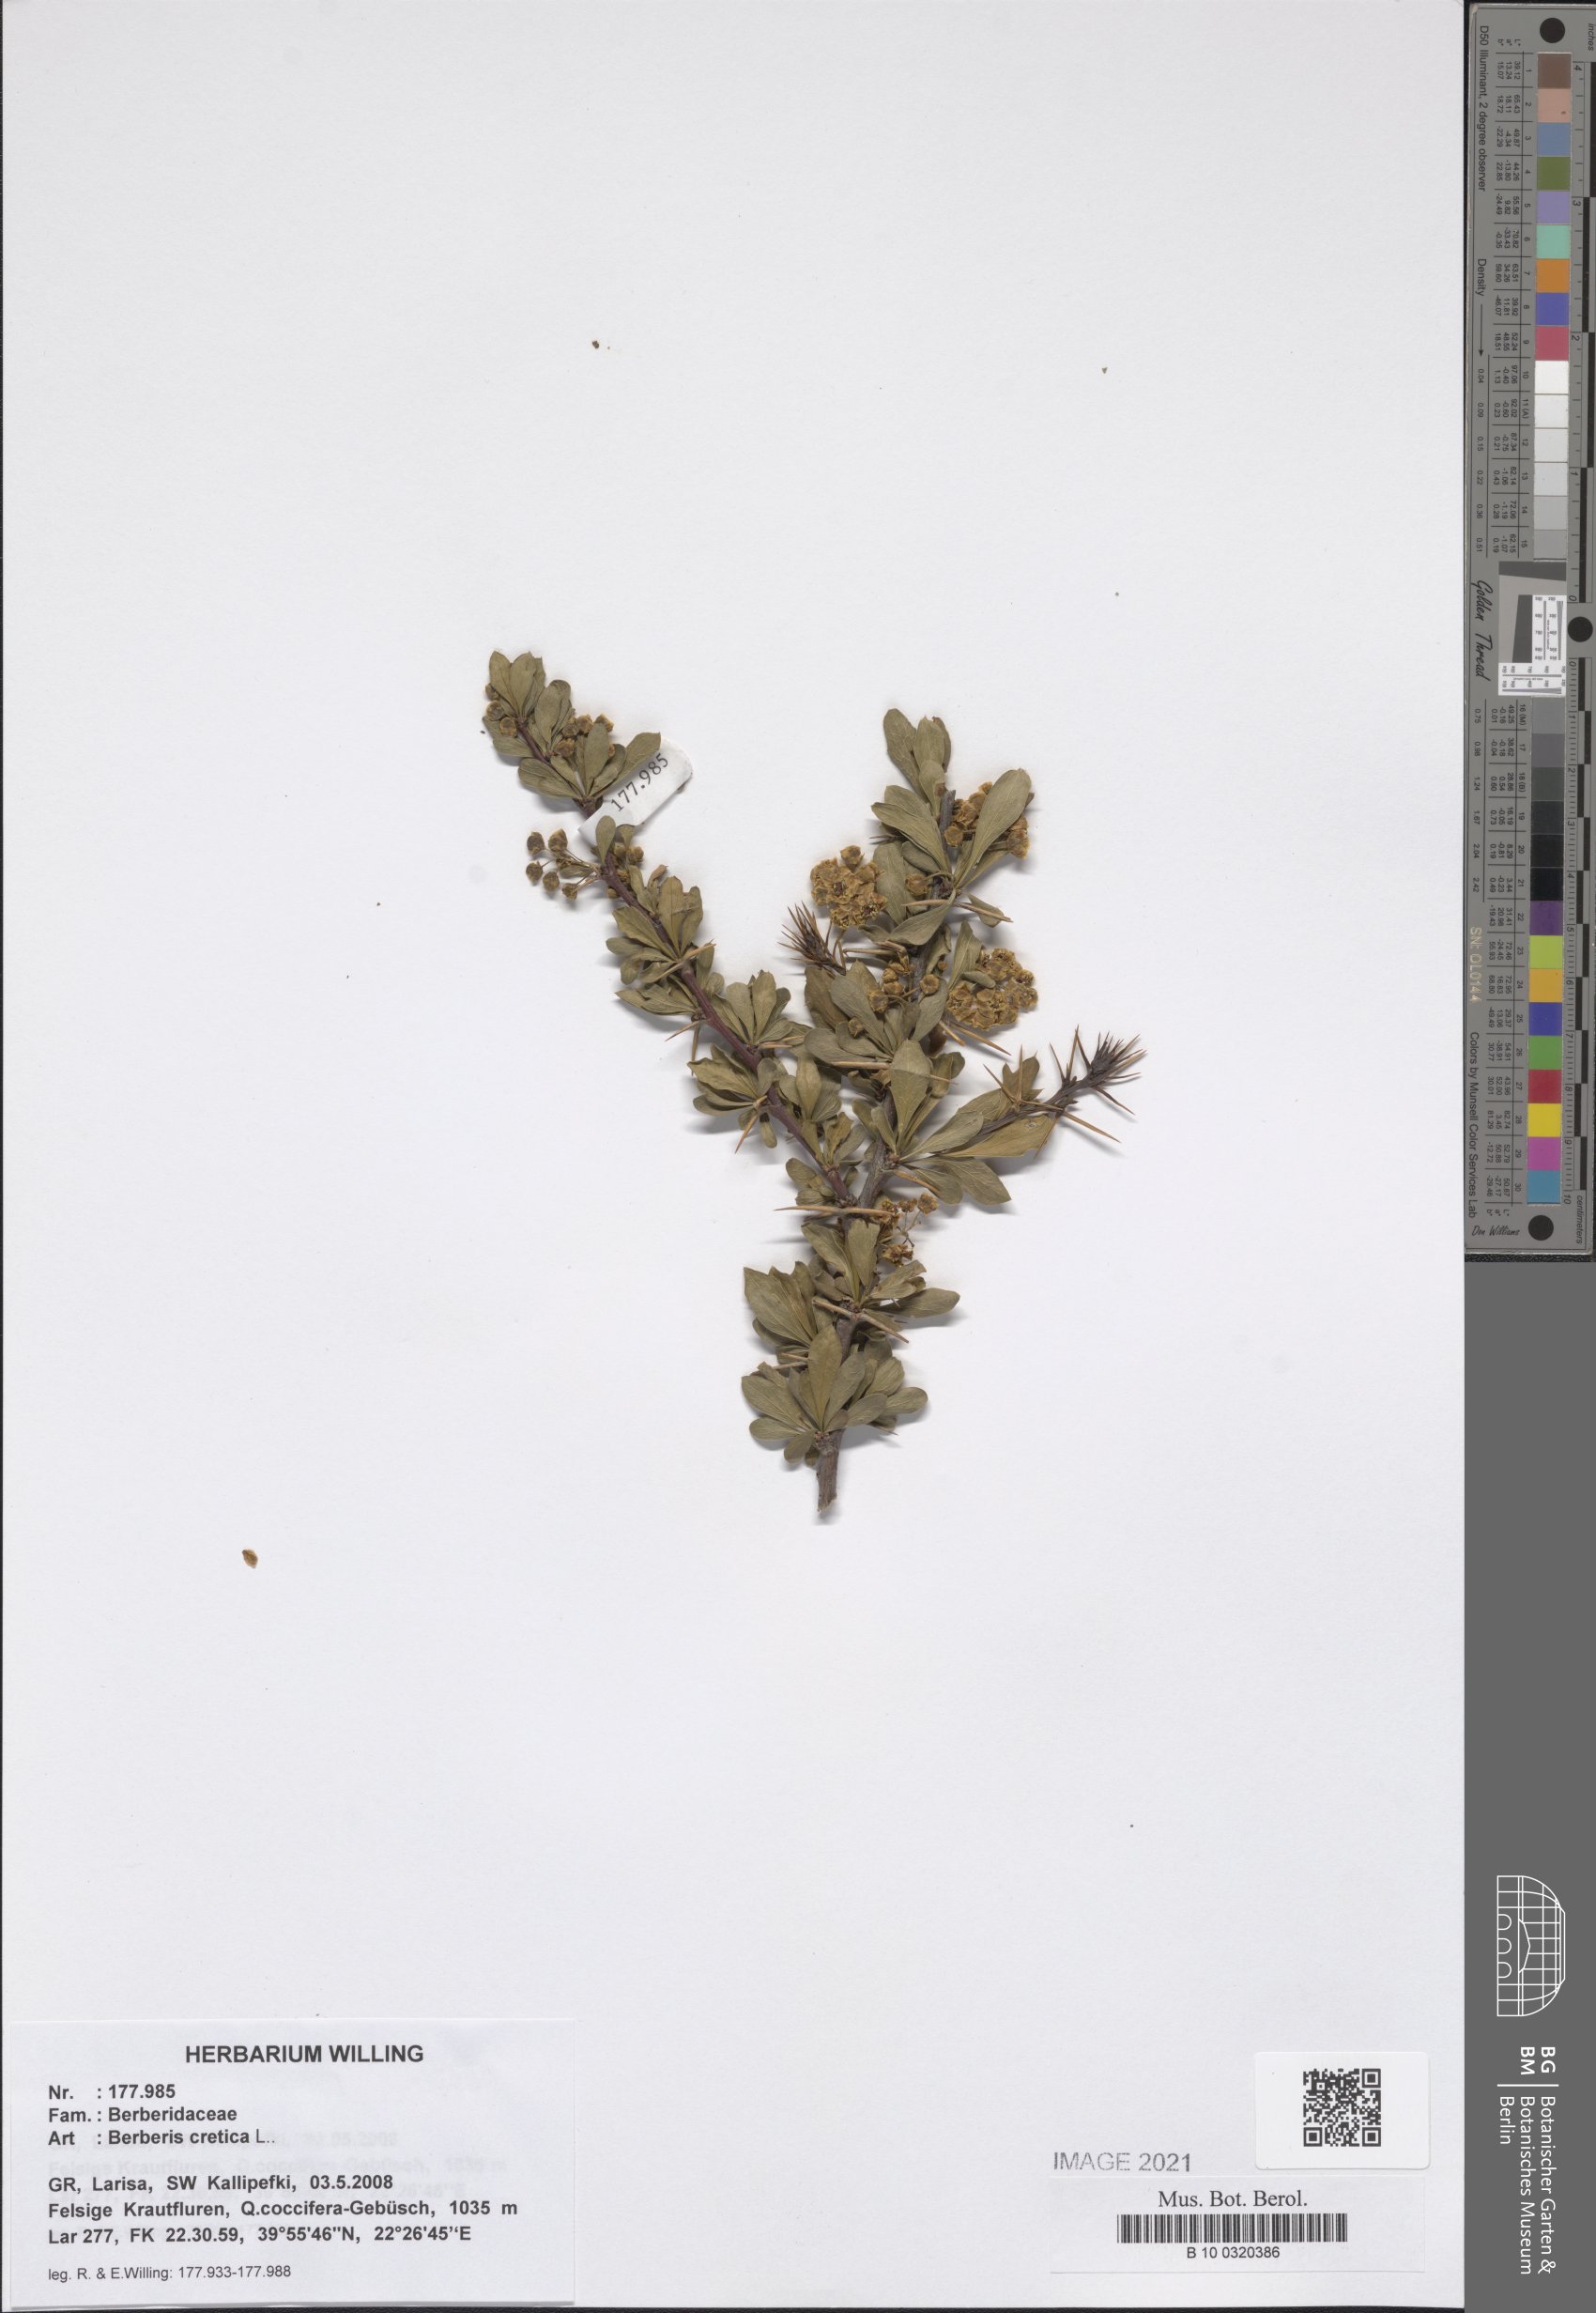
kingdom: Plantae
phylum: Tracheophyta
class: Magnoliopsida
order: Ranunculales
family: Berberidaceae
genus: Berberis
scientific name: Berberis cretica
